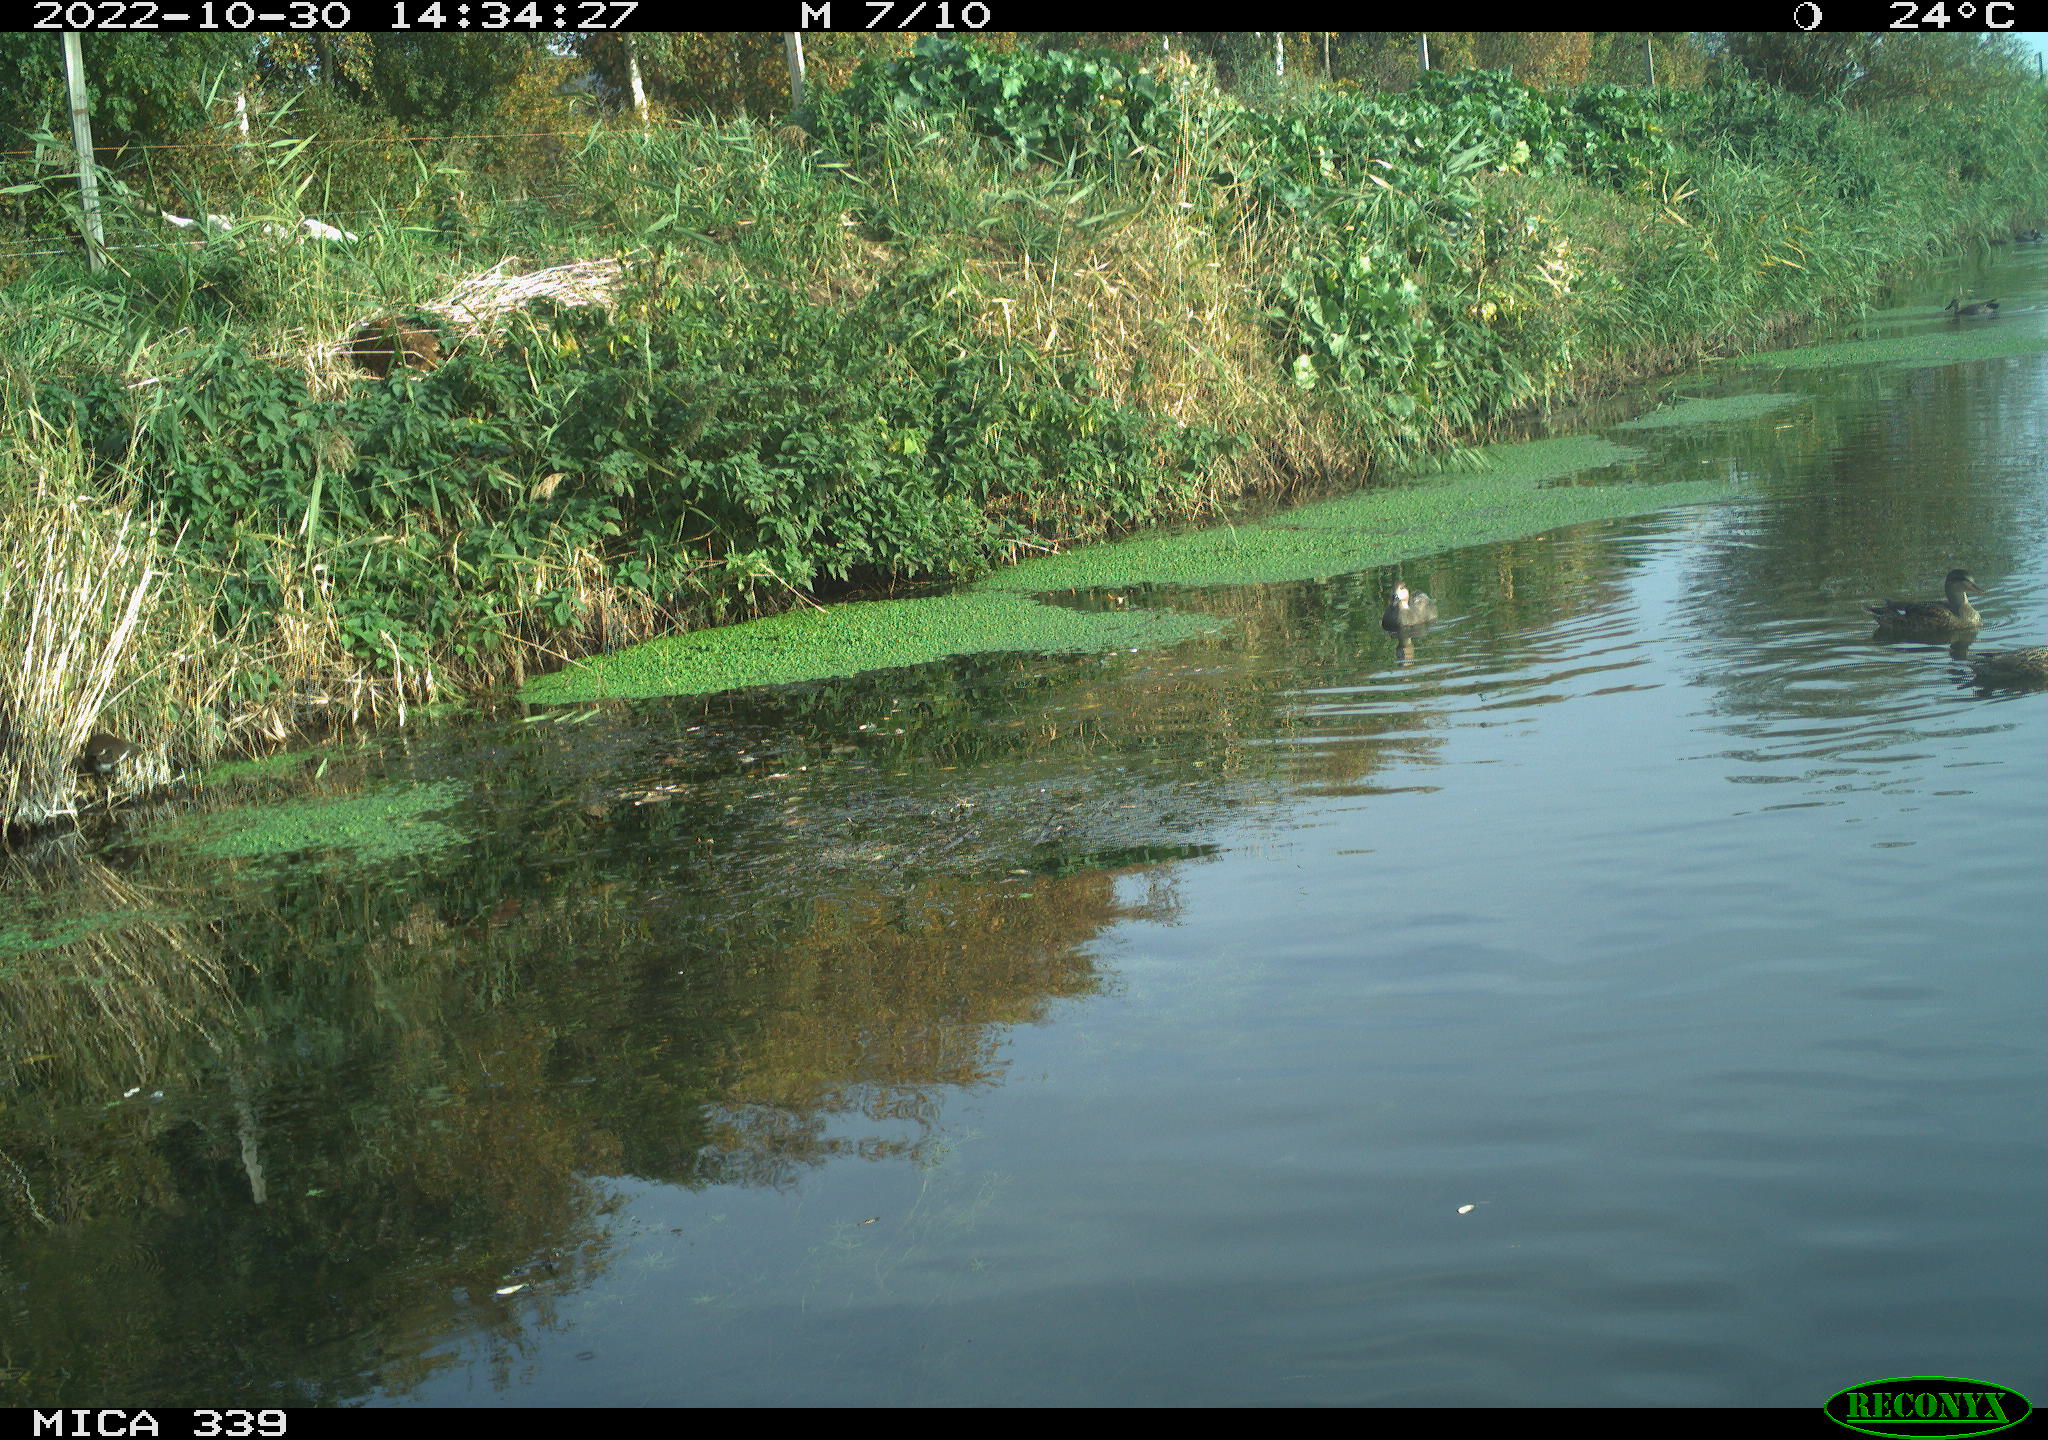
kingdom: Animalia
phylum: Chordata
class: Aves
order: Anseriformes
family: Anatidae
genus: Mareca
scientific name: Mareca penelope
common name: Eurasian wigeon
